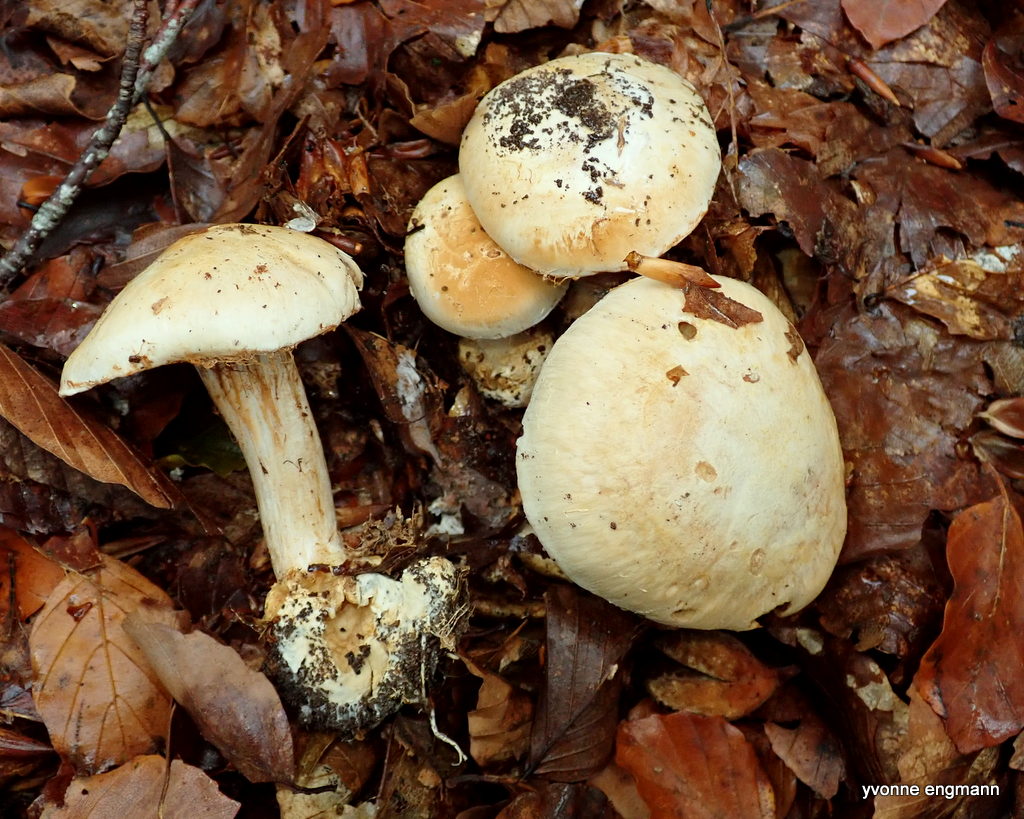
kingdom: Fungi
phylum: Basidiomycota
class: Agaricomycetes
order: Agaricales
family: Cortinariaceae
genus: Cortinarius
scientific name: Cortinarius foetens
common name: stribet slørhat
